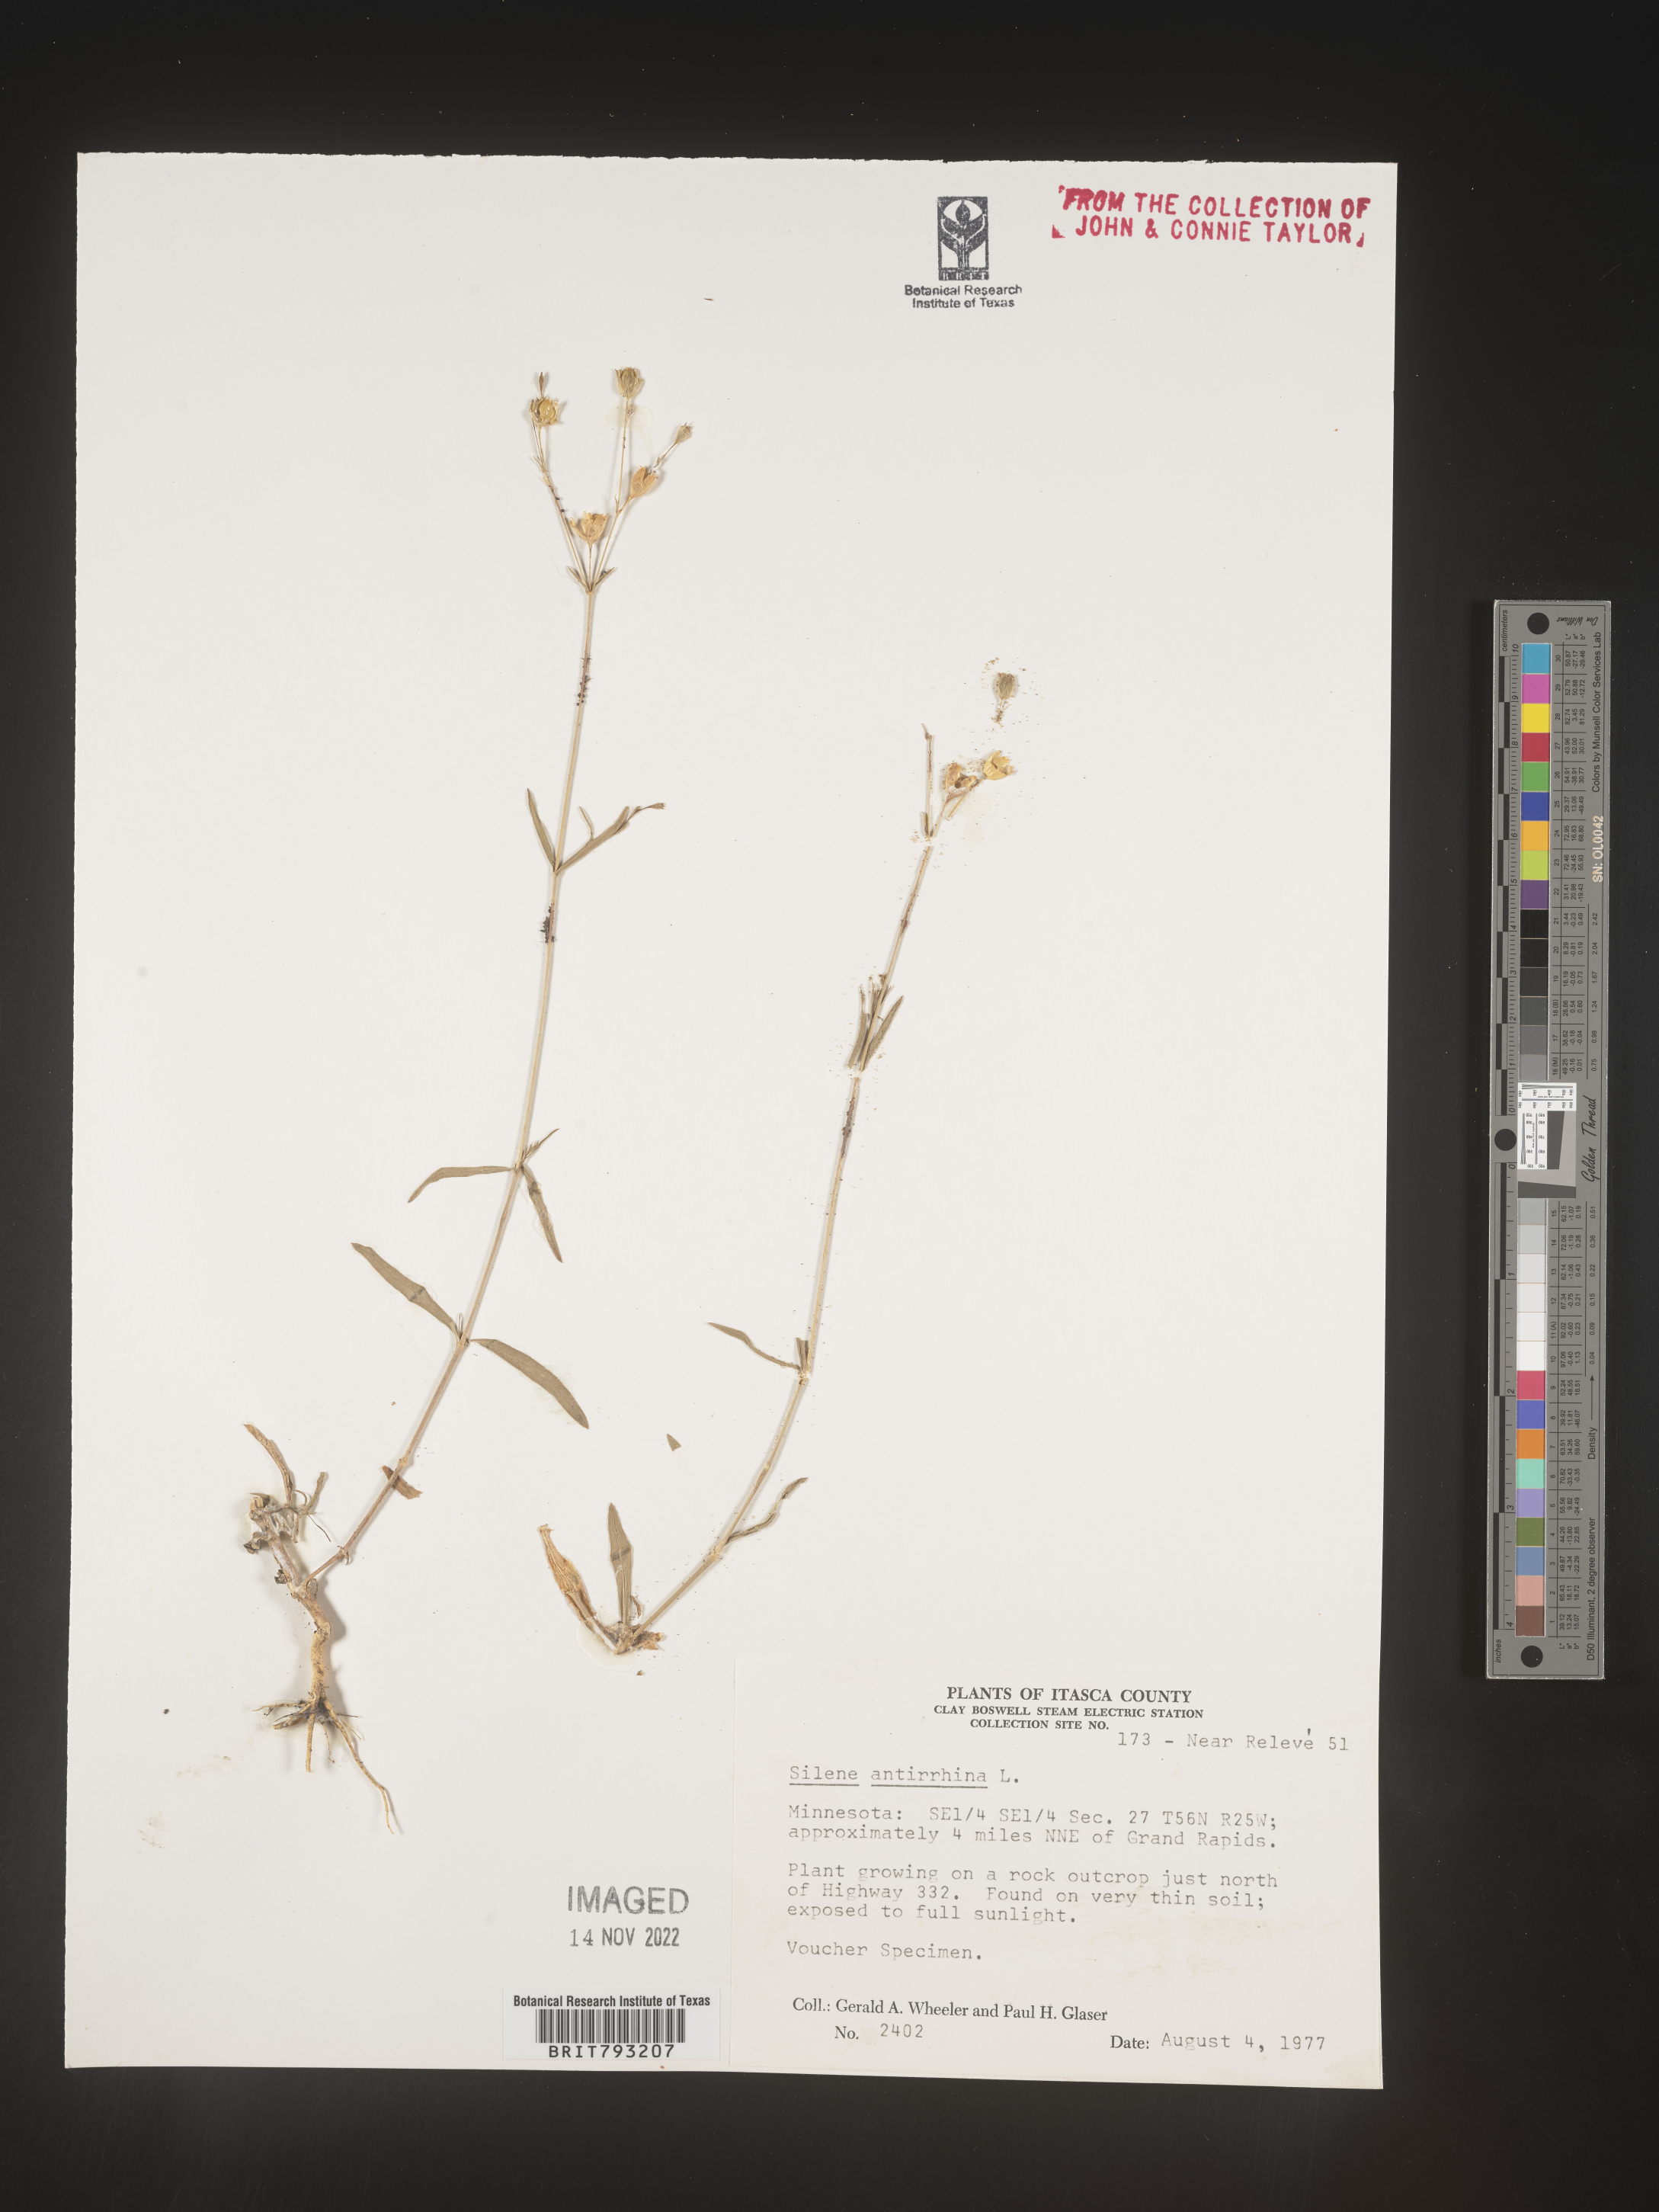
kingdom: Plantae
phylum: Tracheophyta
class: Magnoliopsida
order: Caryophyllales
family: Caryophyllaceae
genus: Silene
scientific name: Silene antirrhina
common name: Sleepy catchfly
